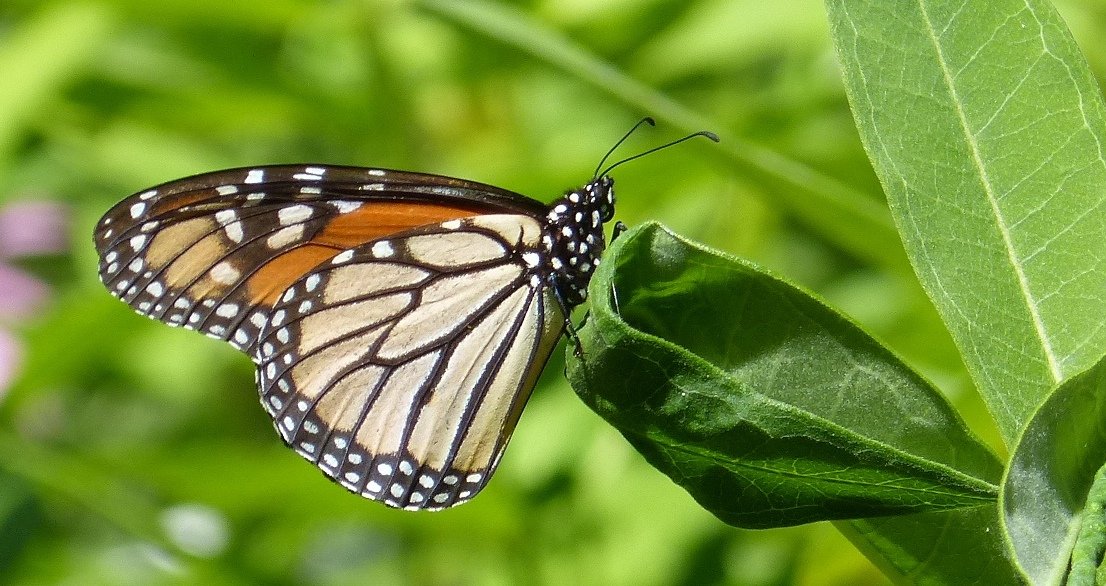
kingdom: Animalia
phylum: Arthropoda
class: Insecta
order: Lepidoptera
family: Nymphalidae
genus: Danaus
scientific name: Danaus plexippus
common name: Monarch
